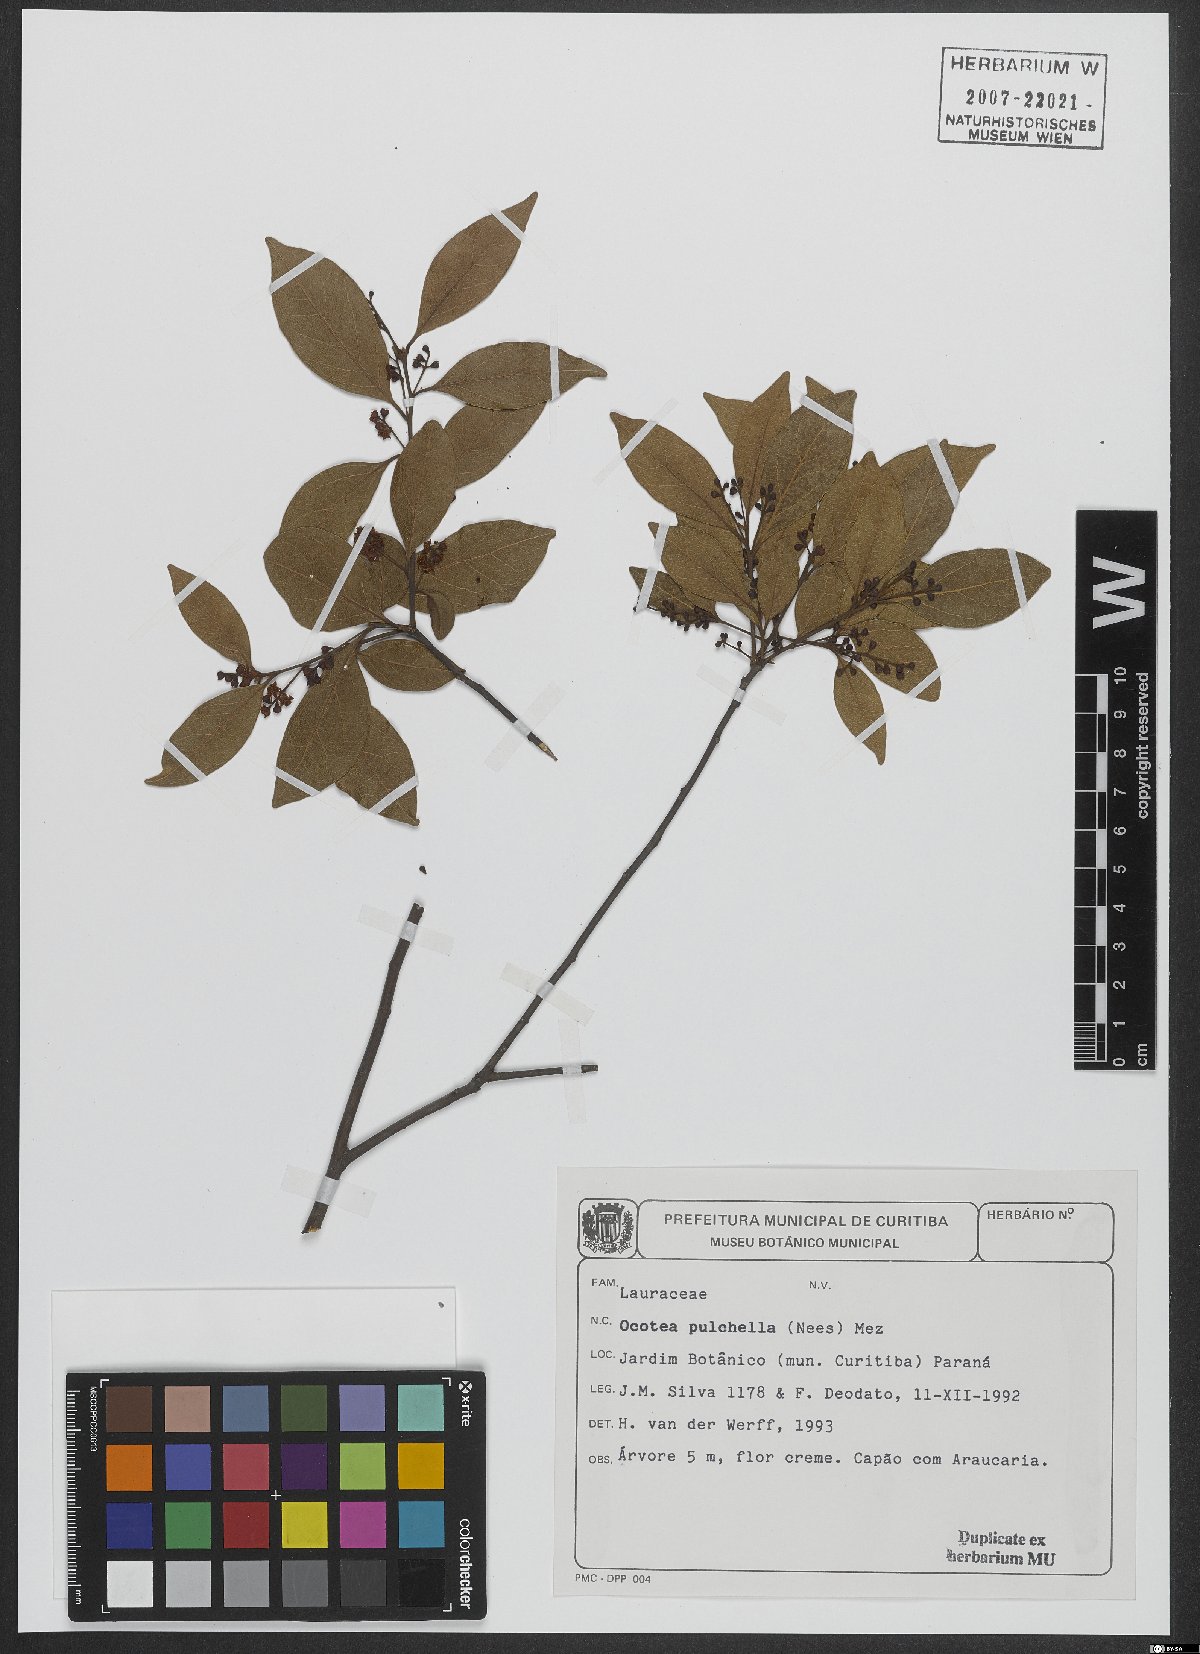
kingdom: Plantae
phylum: Tracheophyta
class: Magnoliopsida
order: Laurales
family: Lauraceae
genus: Mespilodaphne
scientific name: Mespilodaphne pulchella
